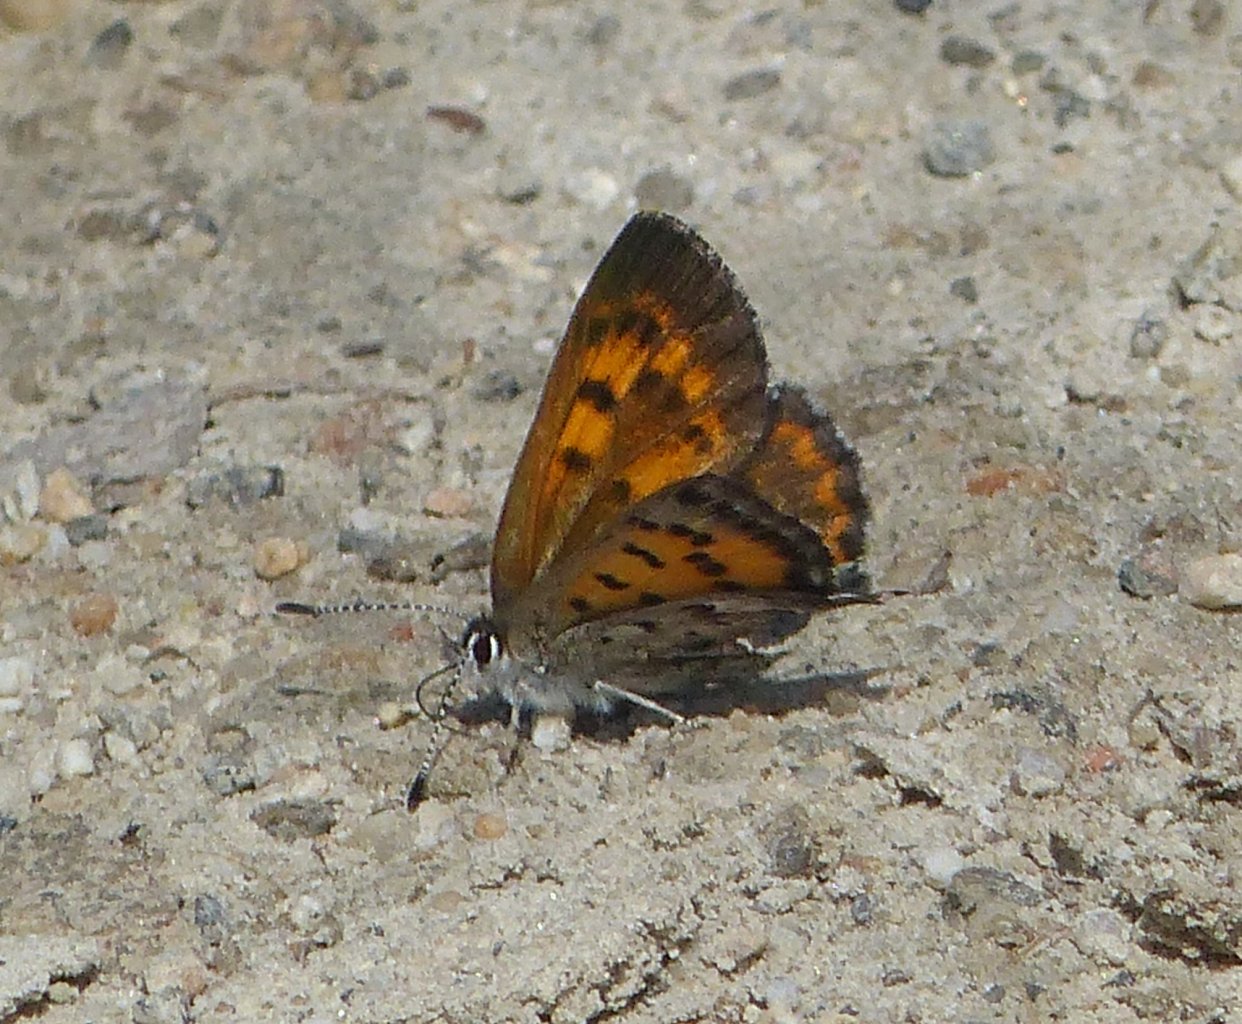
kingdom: Animalia
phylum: Arthropoda
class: Insecta
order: Lepidoptera
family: Lycaenidae
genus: Lycaena
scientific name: Lycaena mariposa
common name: Mariposa Copper
